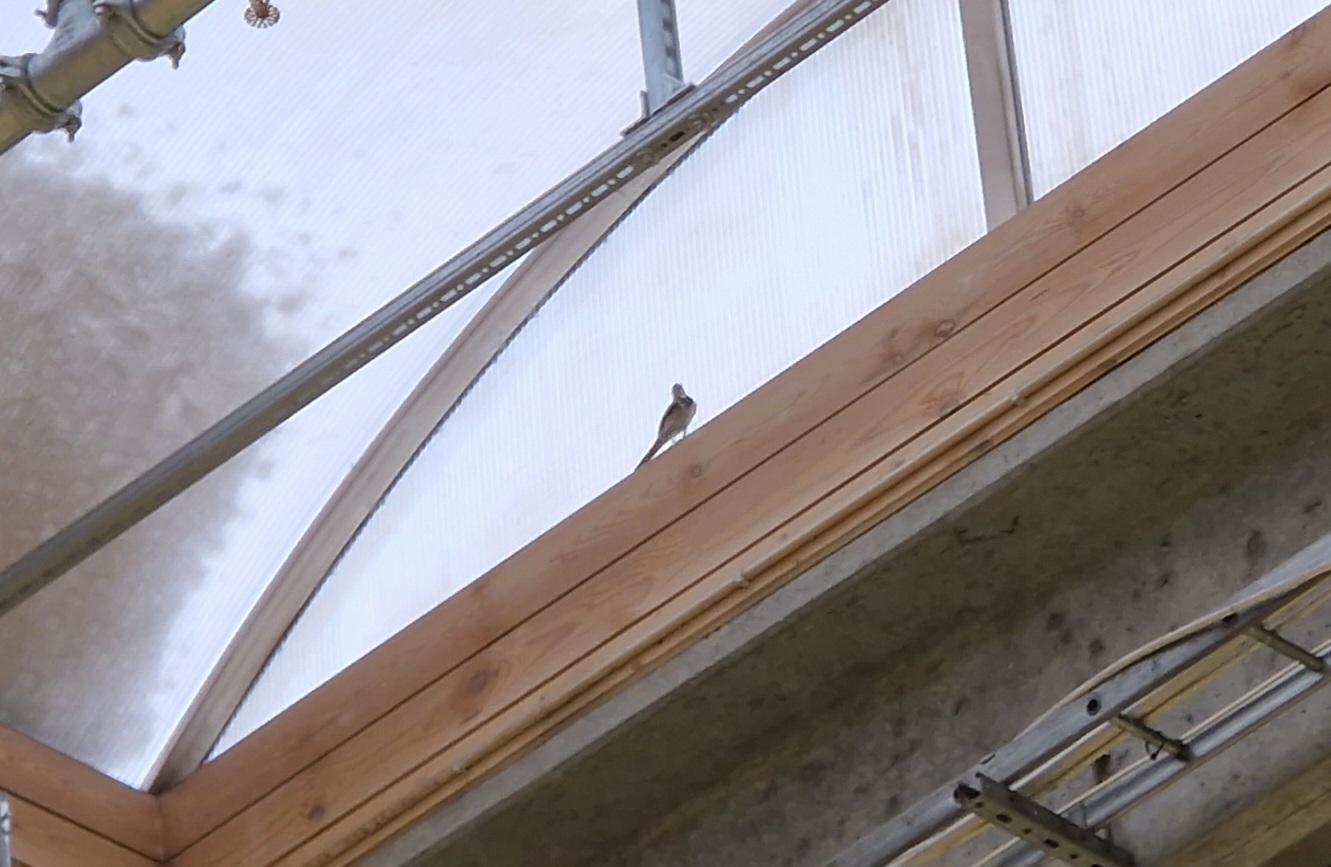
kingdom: Animalia
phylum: Chordata
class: Aves
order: Passeriformes
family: Motacillidae
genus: Motacilla
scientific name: Motacilla alba
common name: Hvid vipstjert
